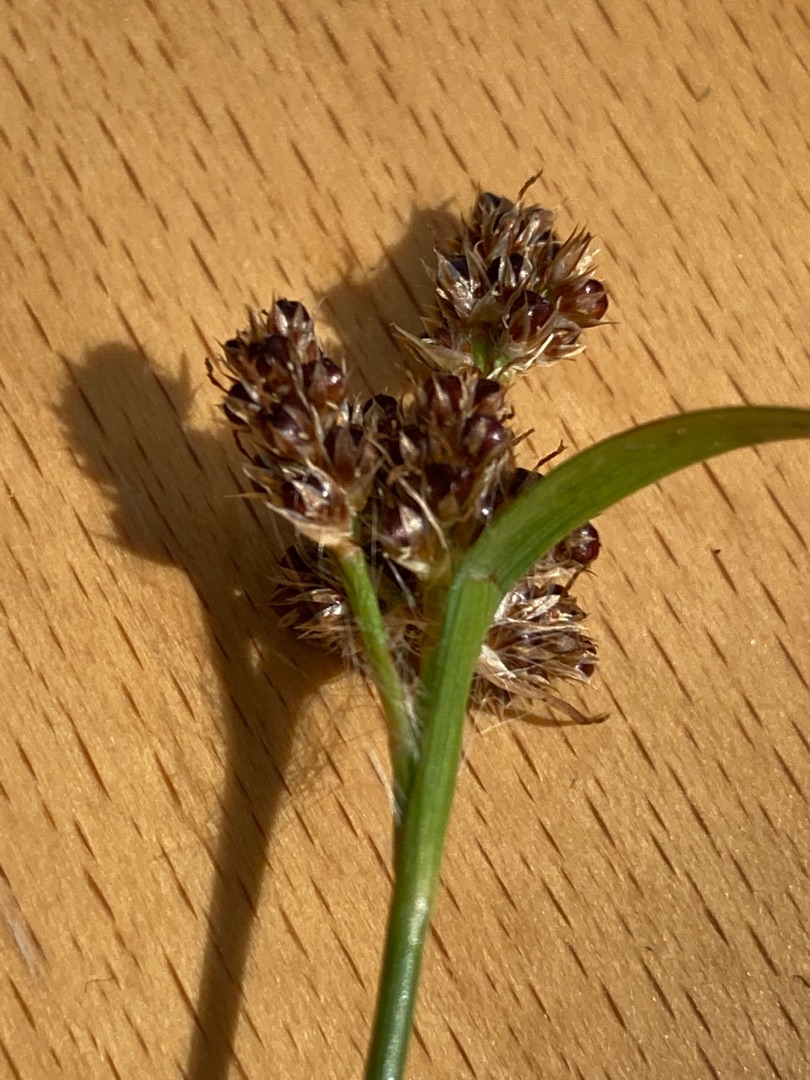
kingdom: Plantae
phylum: Tracheophyta
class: Liliopsida
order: Poales
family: Juncaceae
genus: Luzula
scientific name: Luzula congesta
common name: Hoved-frytle
